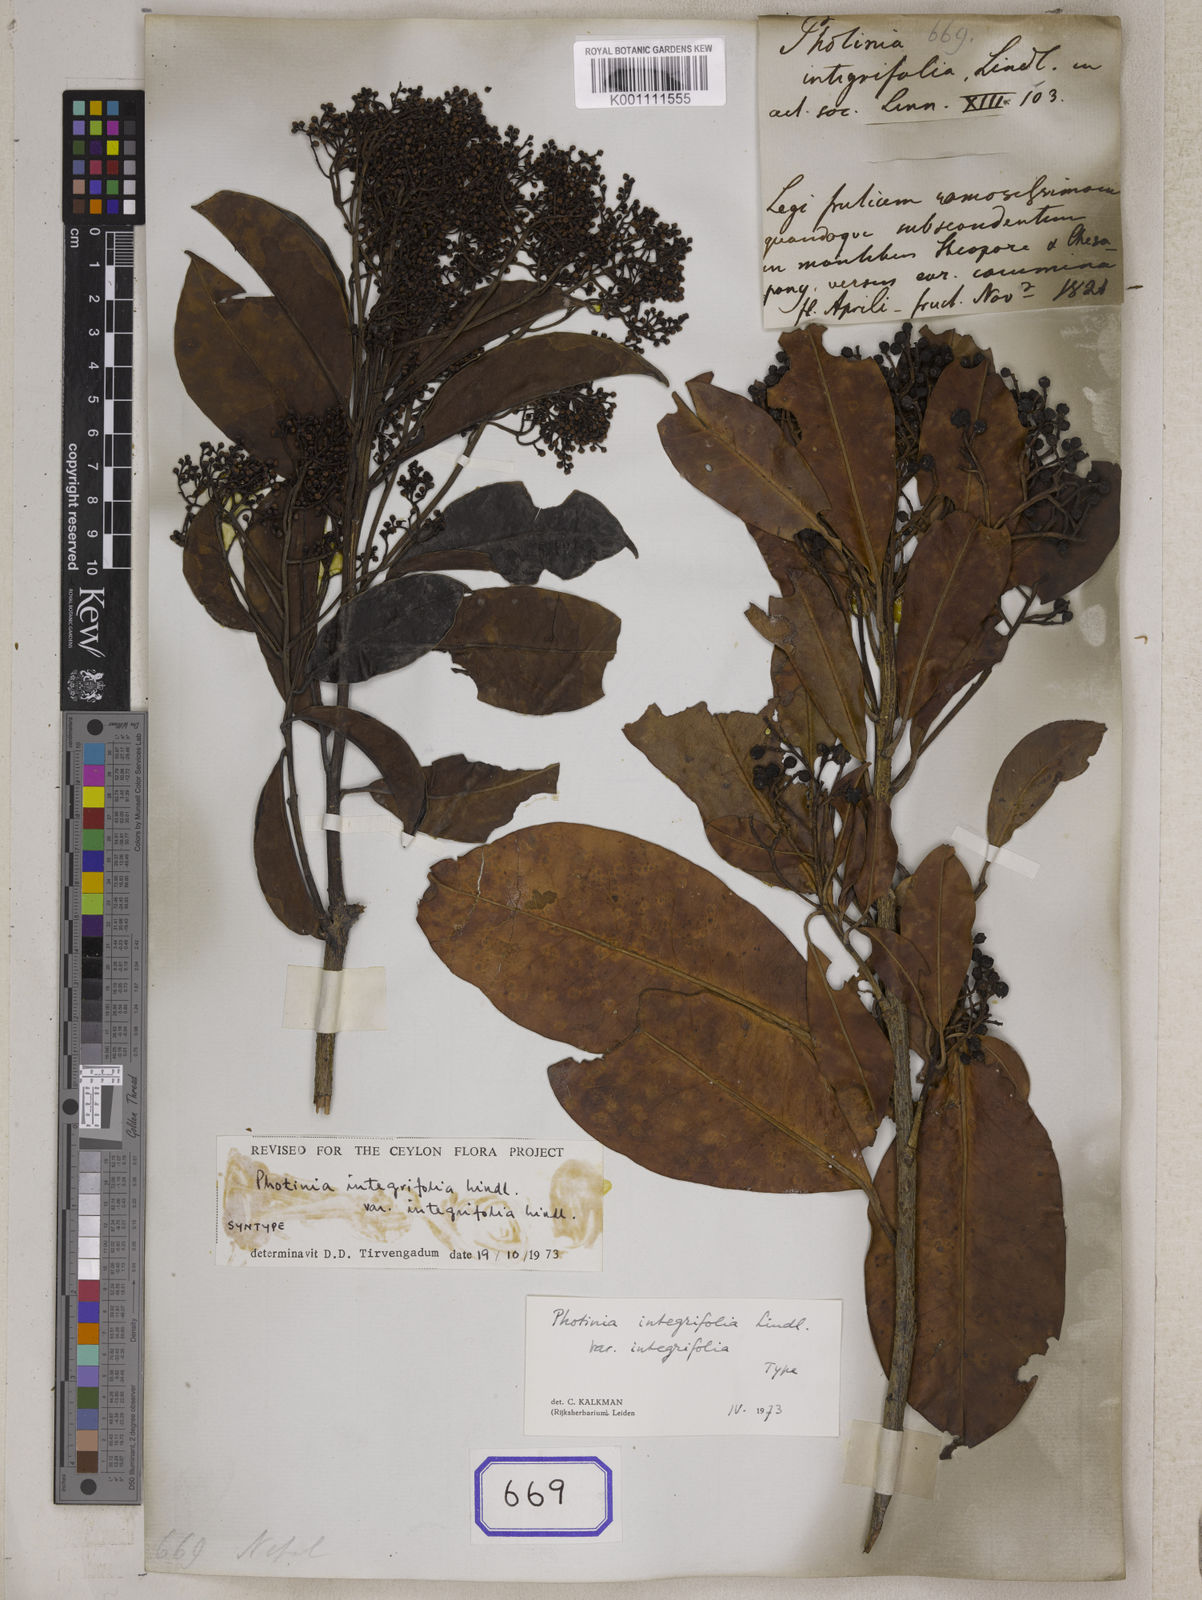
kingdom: Plantae
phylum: Tracheophyta
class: Magnoliopsida
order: Rosales
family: Rosaceae
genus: Photinia
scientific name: Photinia integrifolia
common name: Himalayan chokeberry
